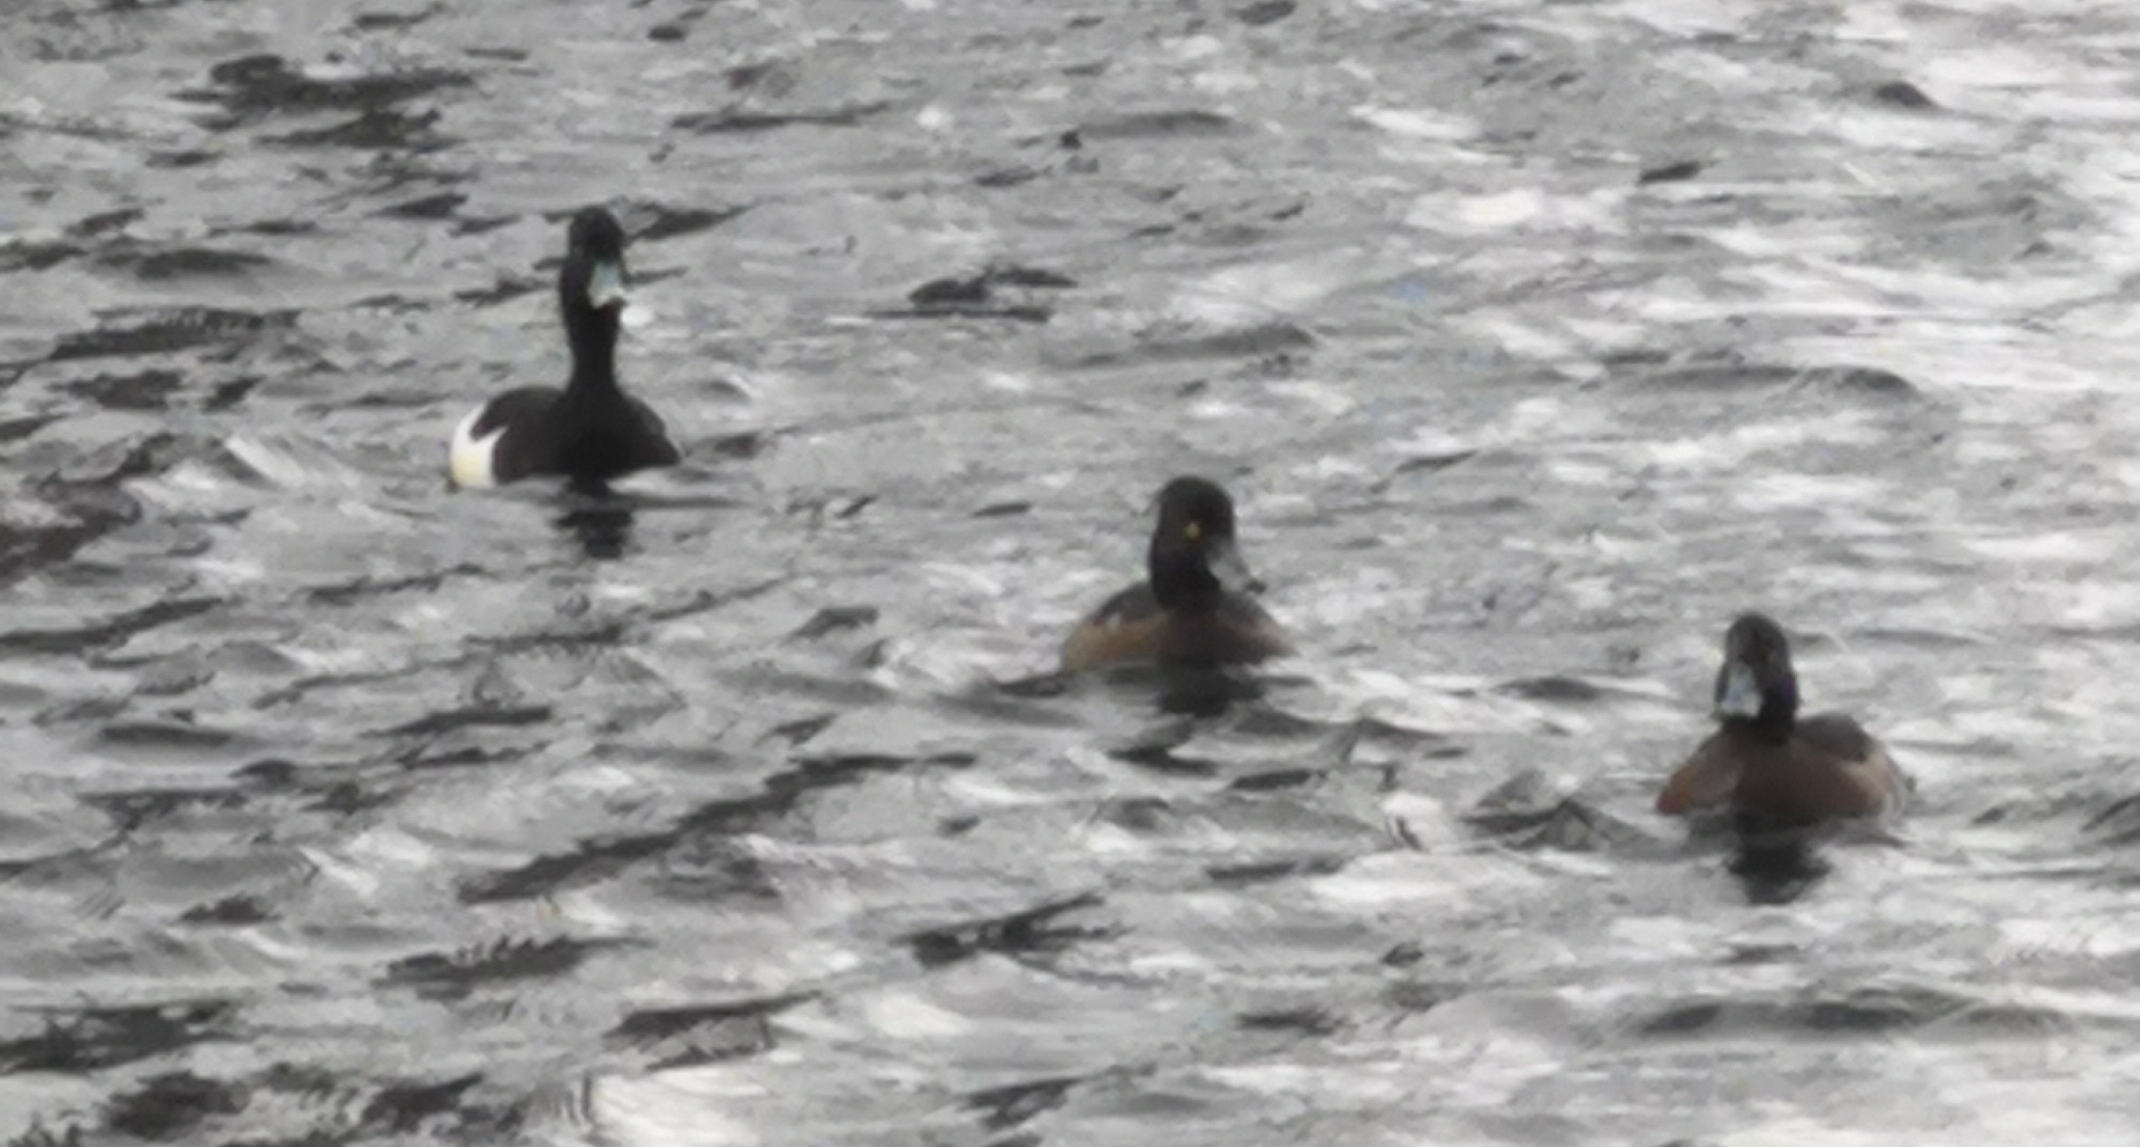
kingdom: Animalia
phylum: Chordata
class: Aves
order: Anseriformes
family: Anatidae
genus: Aythya
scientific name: Aythya fuligula
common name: Troldand
